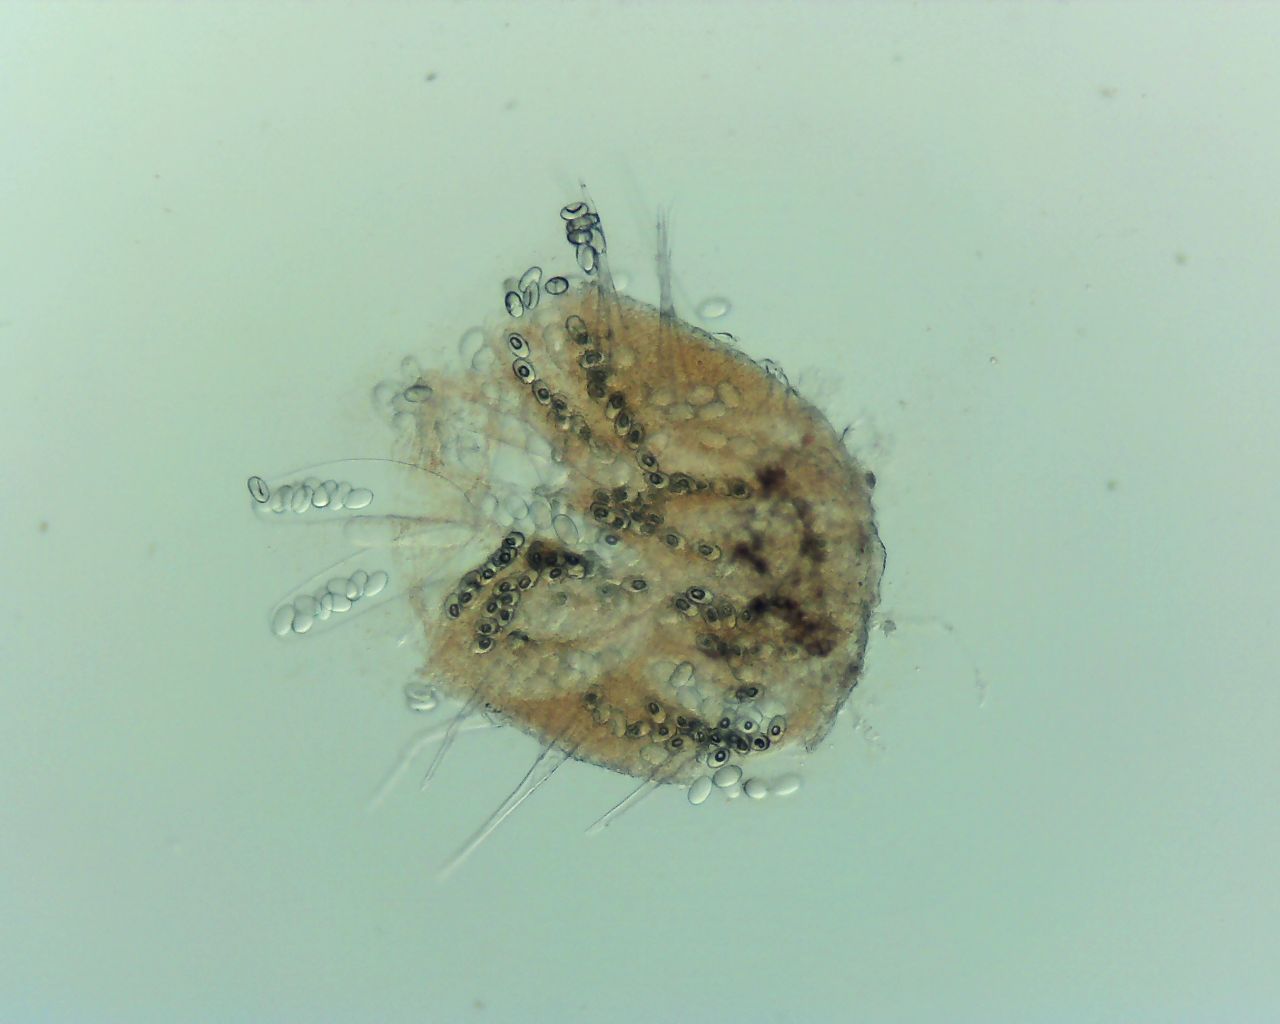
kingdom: Fungi
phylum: Ascomycota
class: Pezizomycetes
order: Pezizales
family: Ascodesmidaceae
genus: Lasiobolus
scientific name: Lasiobolus cuniculi
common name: toradet øjebæger
